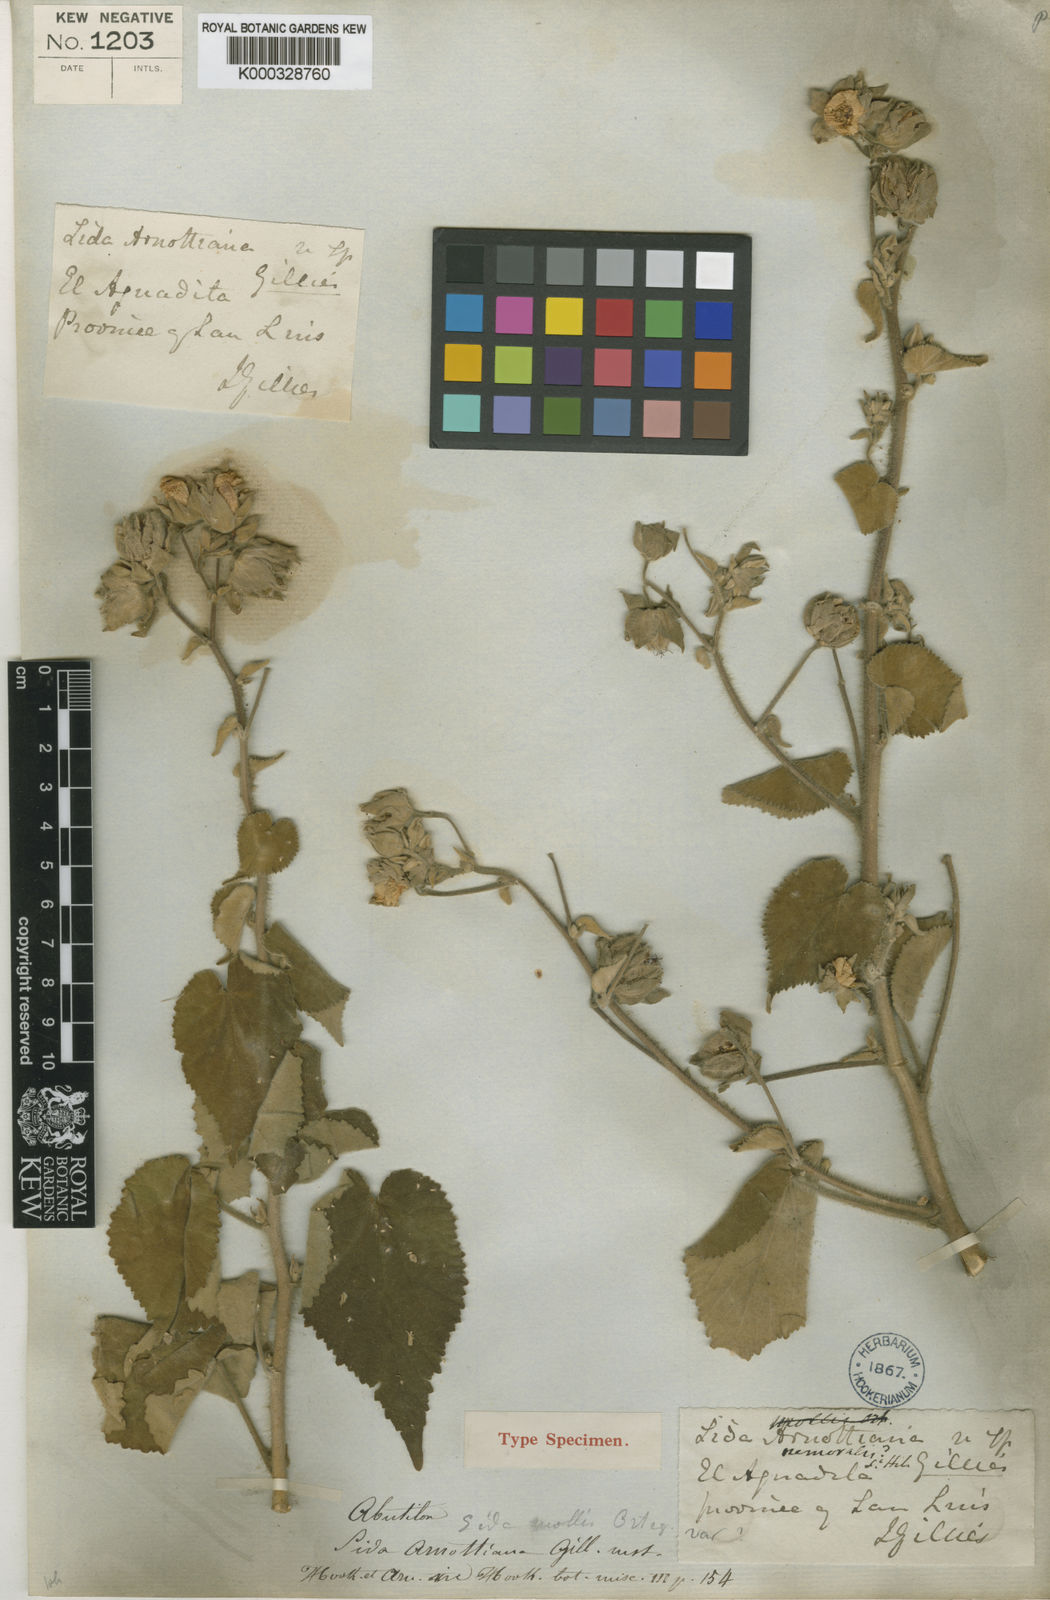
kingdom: Plantae
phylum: Tracheophyta
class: Magnoliopsida
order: Malvales
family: Malvaceae
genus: Abutilon
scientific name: Abutilon mollissimum
